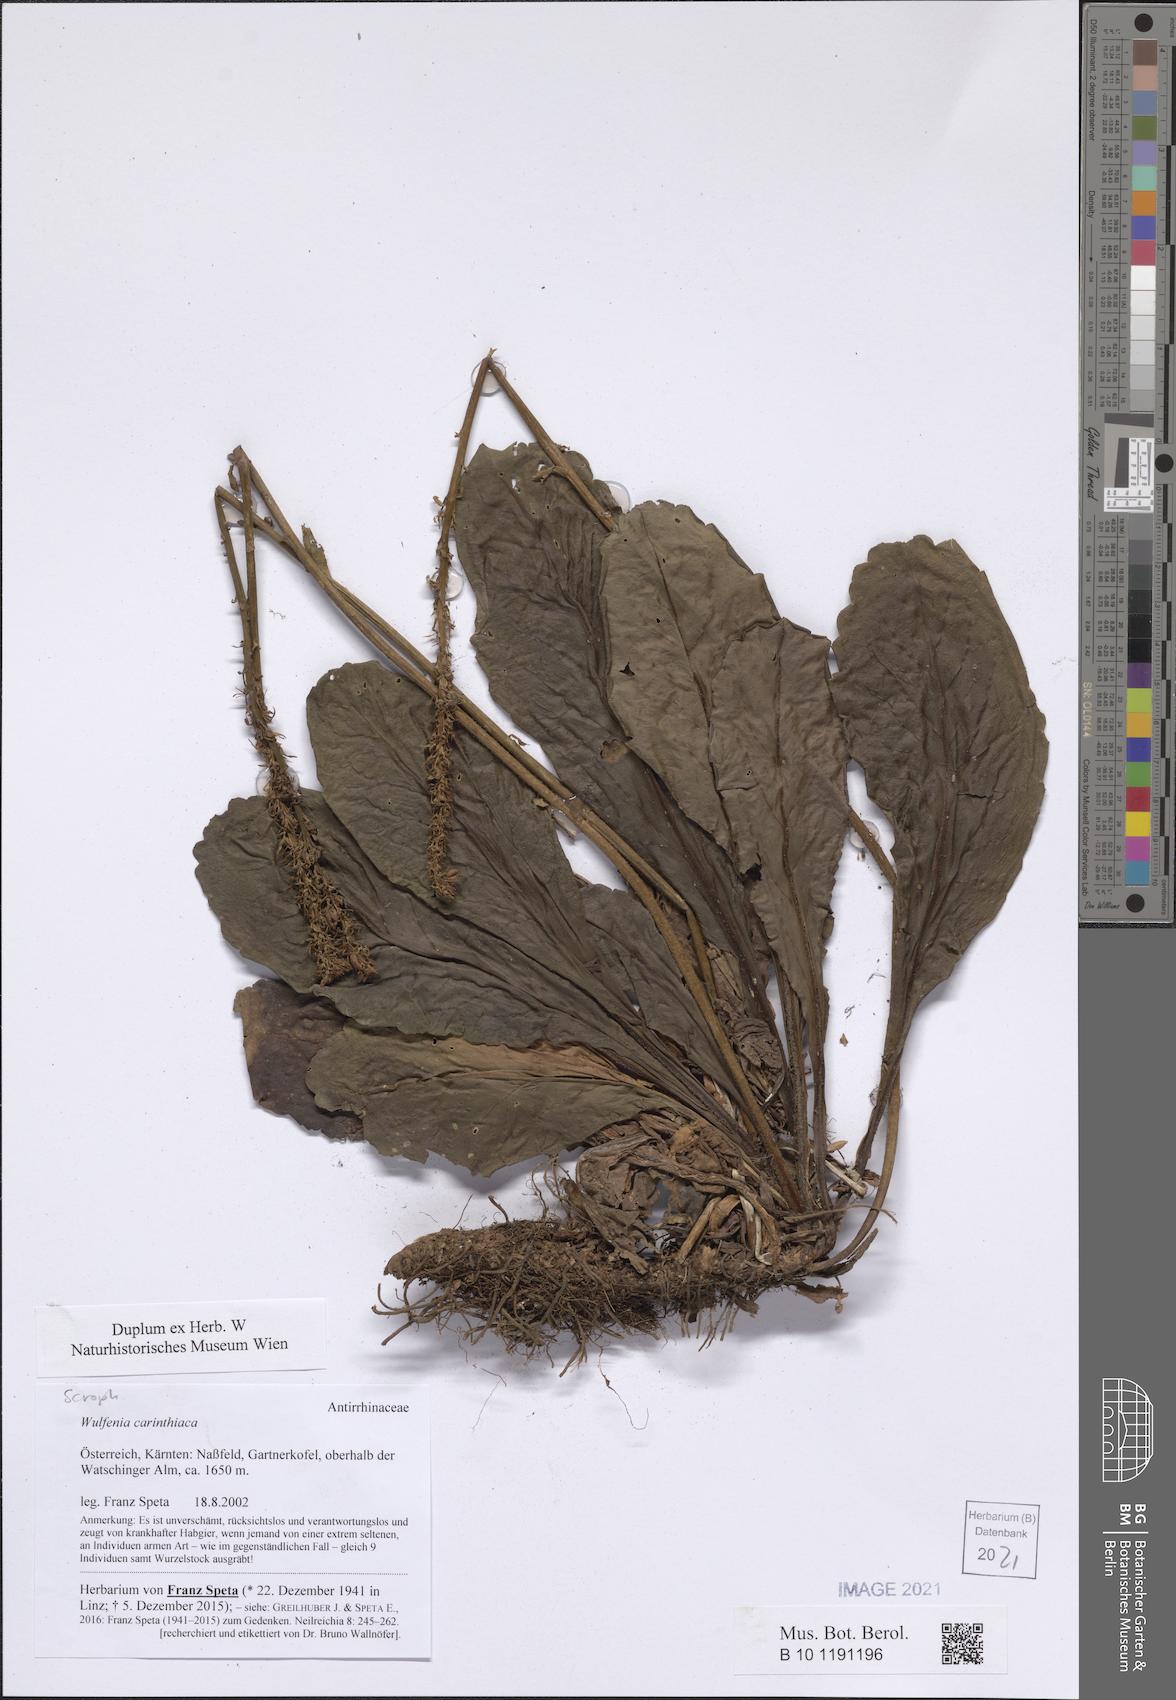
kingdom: Plantae
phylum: Tracheophyta
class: Magnoliopsida
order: Lamiales
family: Plantaginaceae
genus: Wulfenia
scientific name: Wulfenia carinthiaca
